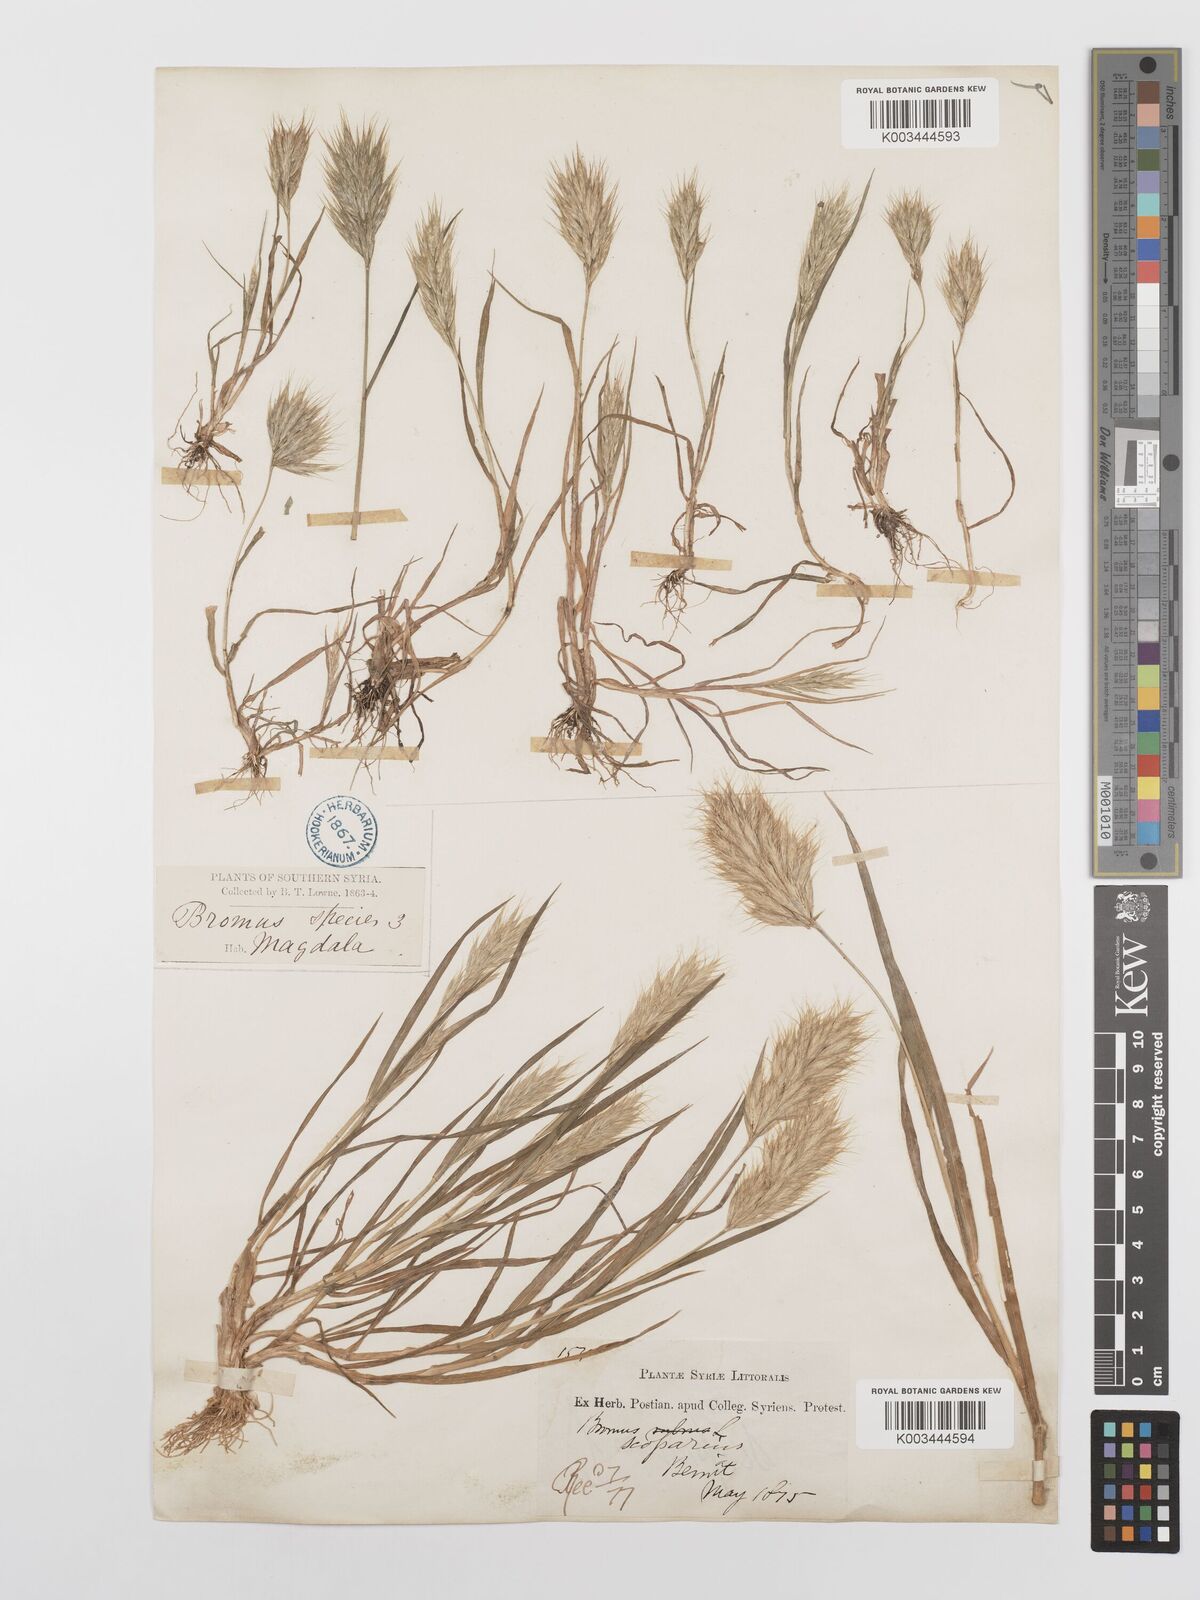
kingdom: Plantae
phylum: Tracheophyta
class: Liliopsida
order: Poales
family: Poaceae
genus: Bromus
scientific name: Bromus scoparius
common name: Broom brome
